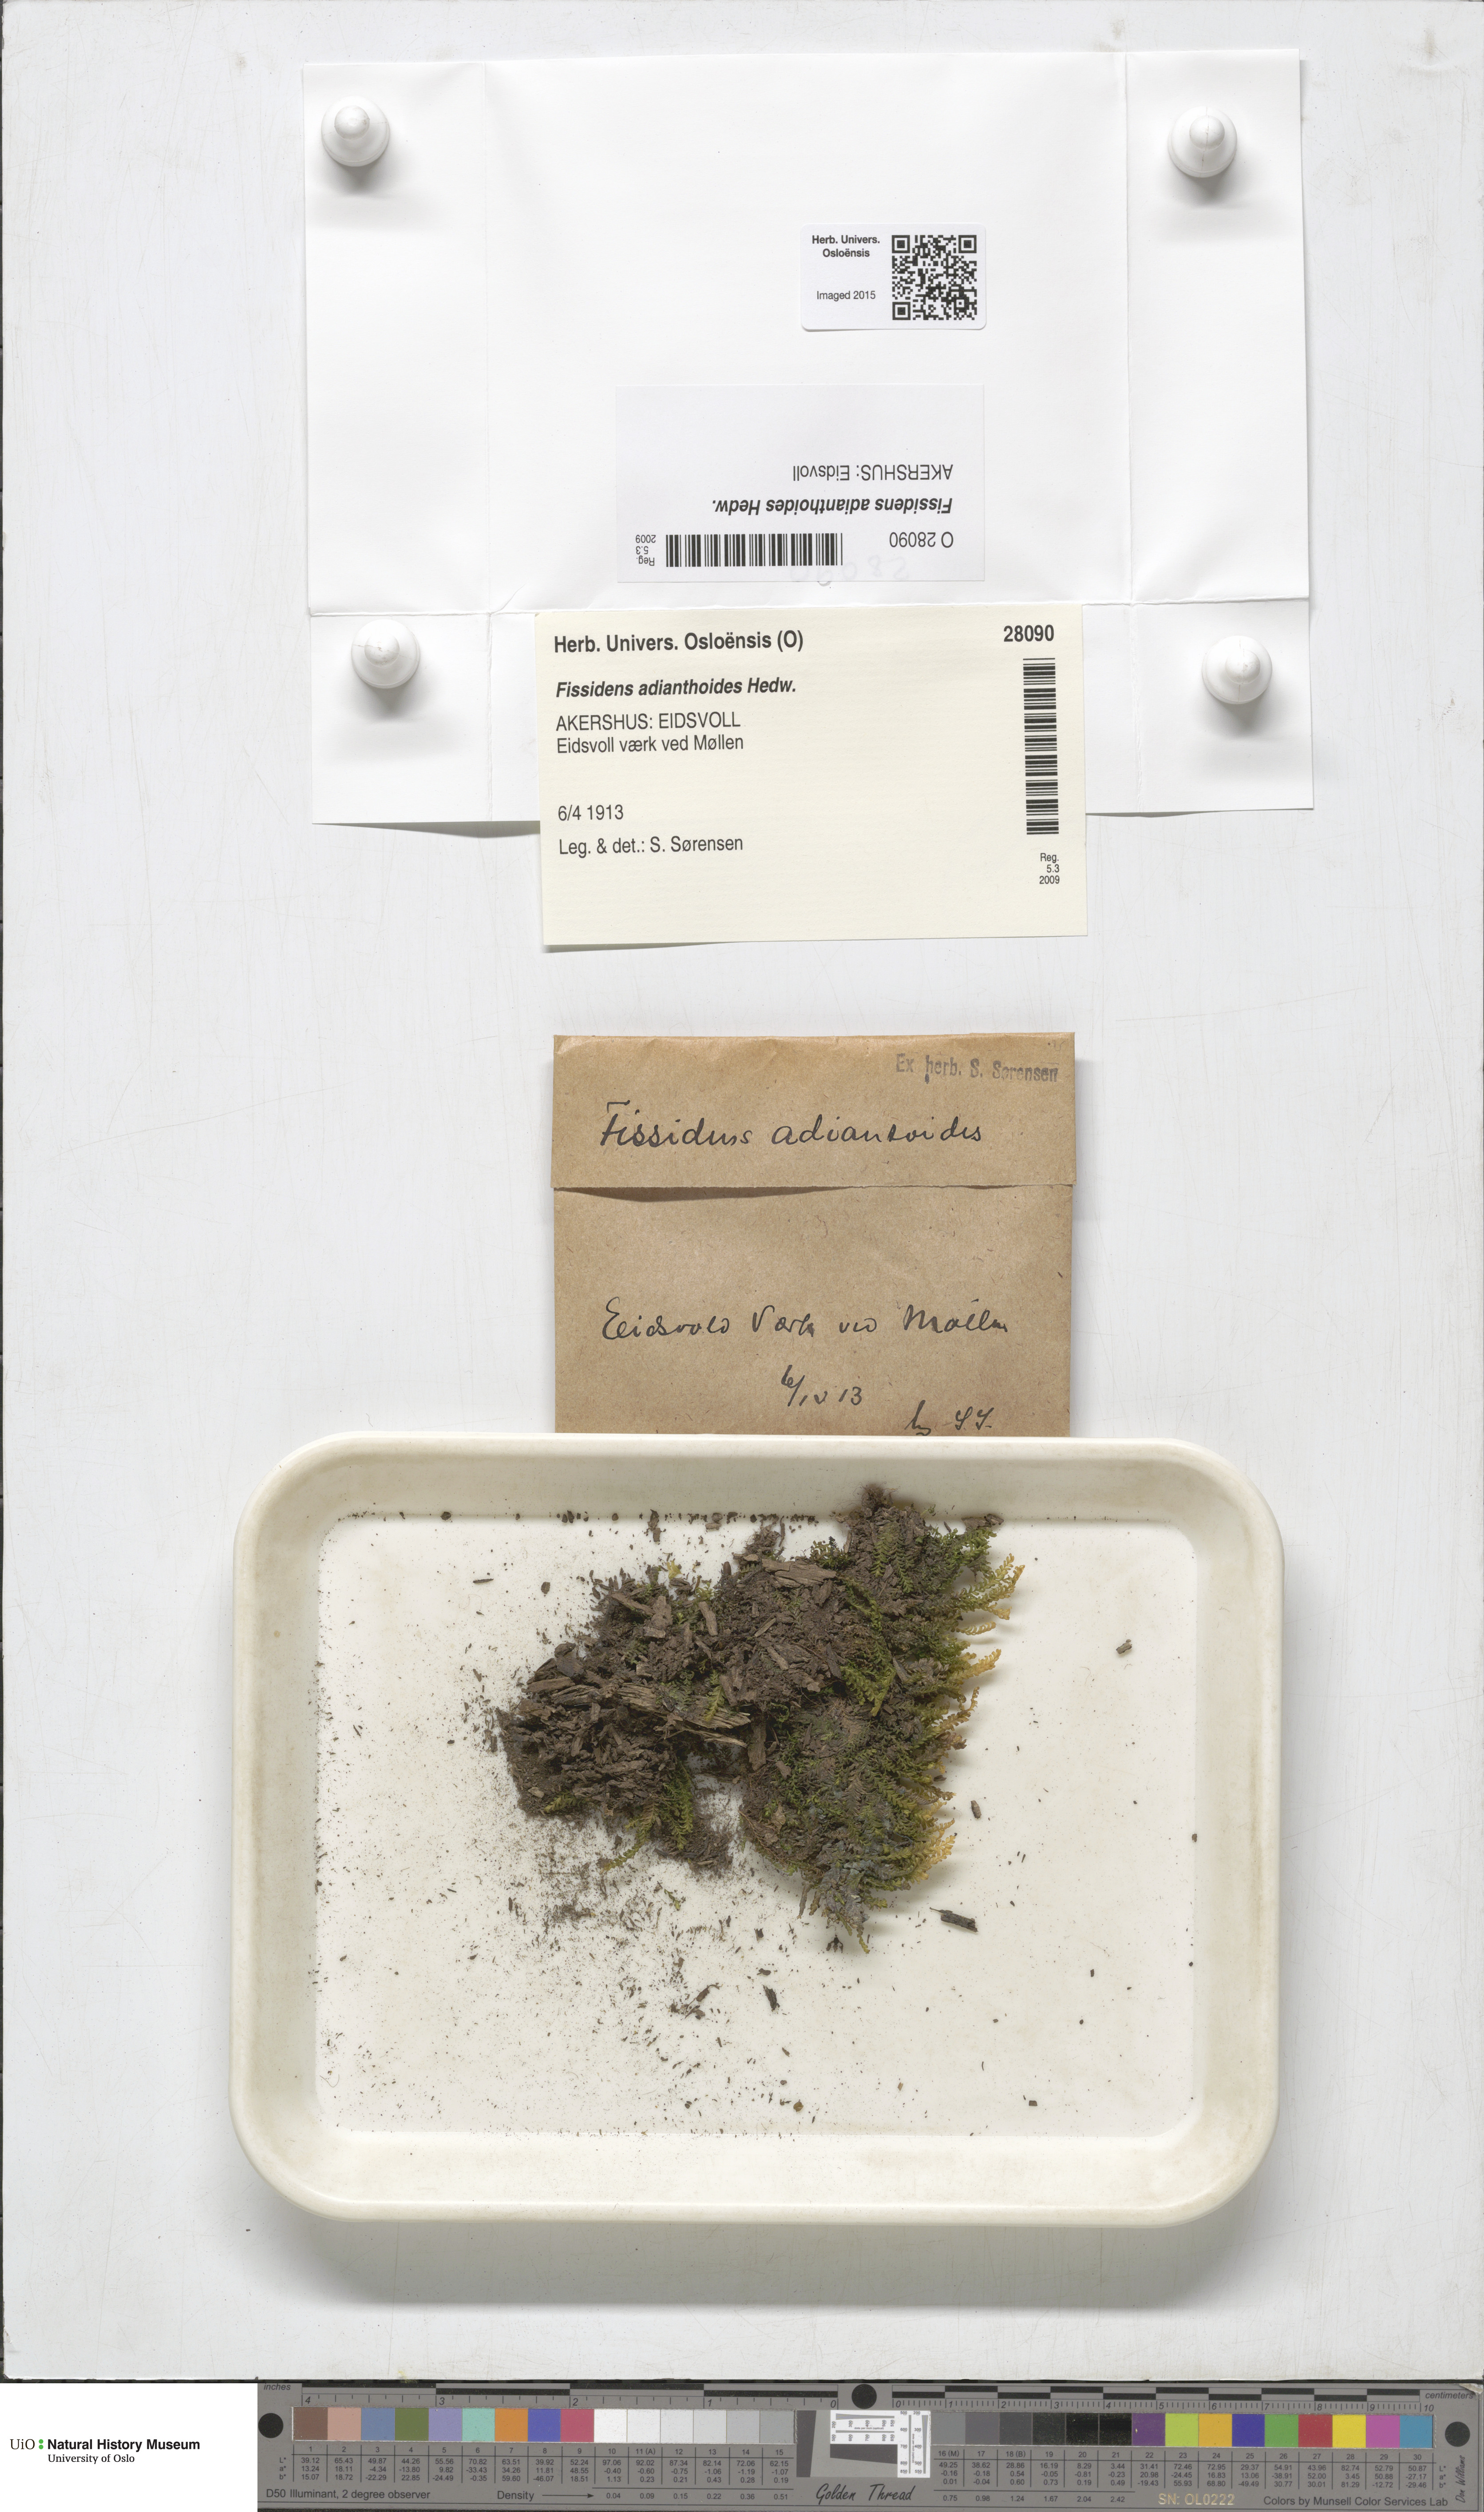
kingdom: Plantae
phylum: Bryophyta
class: Bryopsida
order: Dicranales
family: Fissidentaceae
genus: Fissidens
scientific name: Fissidens adianthoides
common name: Maidenhair pocket moss
